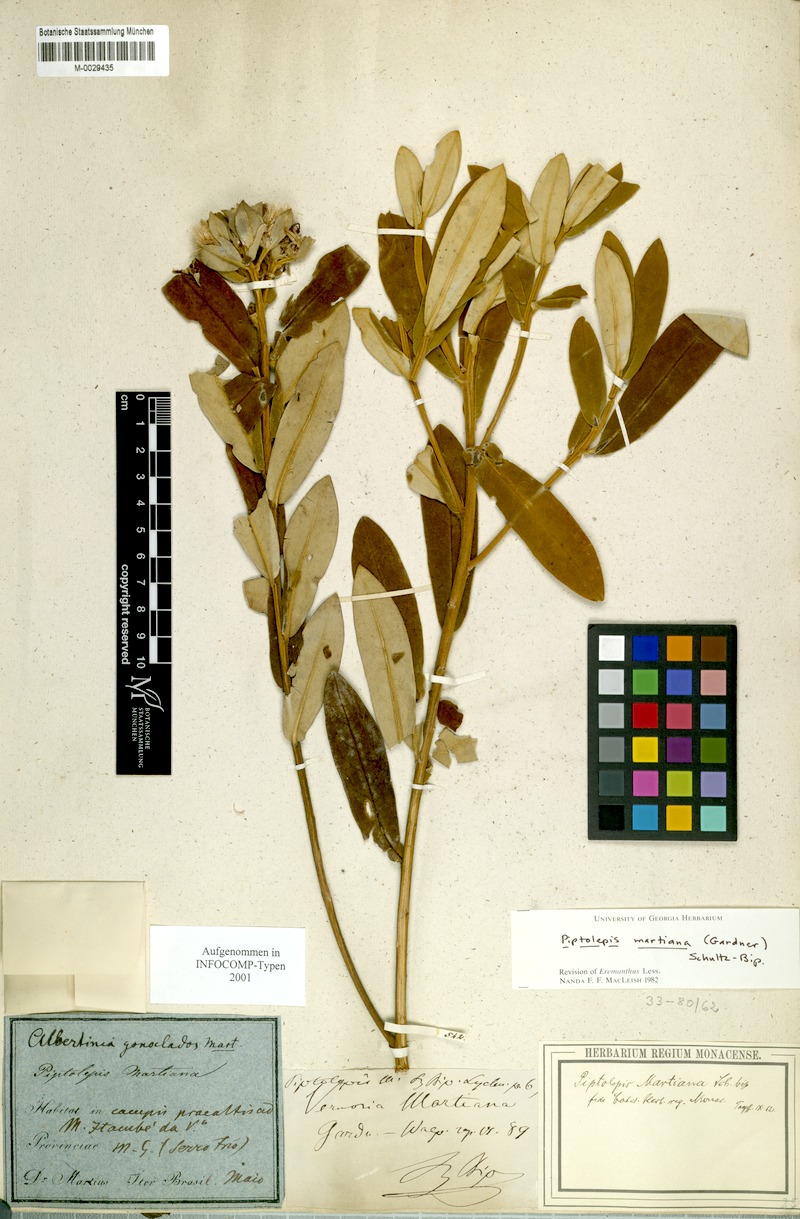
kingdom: Plantae
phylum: Tracheophyta
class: Magnoliopsida
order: Asterales
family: Asteraceae
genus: Piptolepis
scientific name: Piptolepis oleaster
